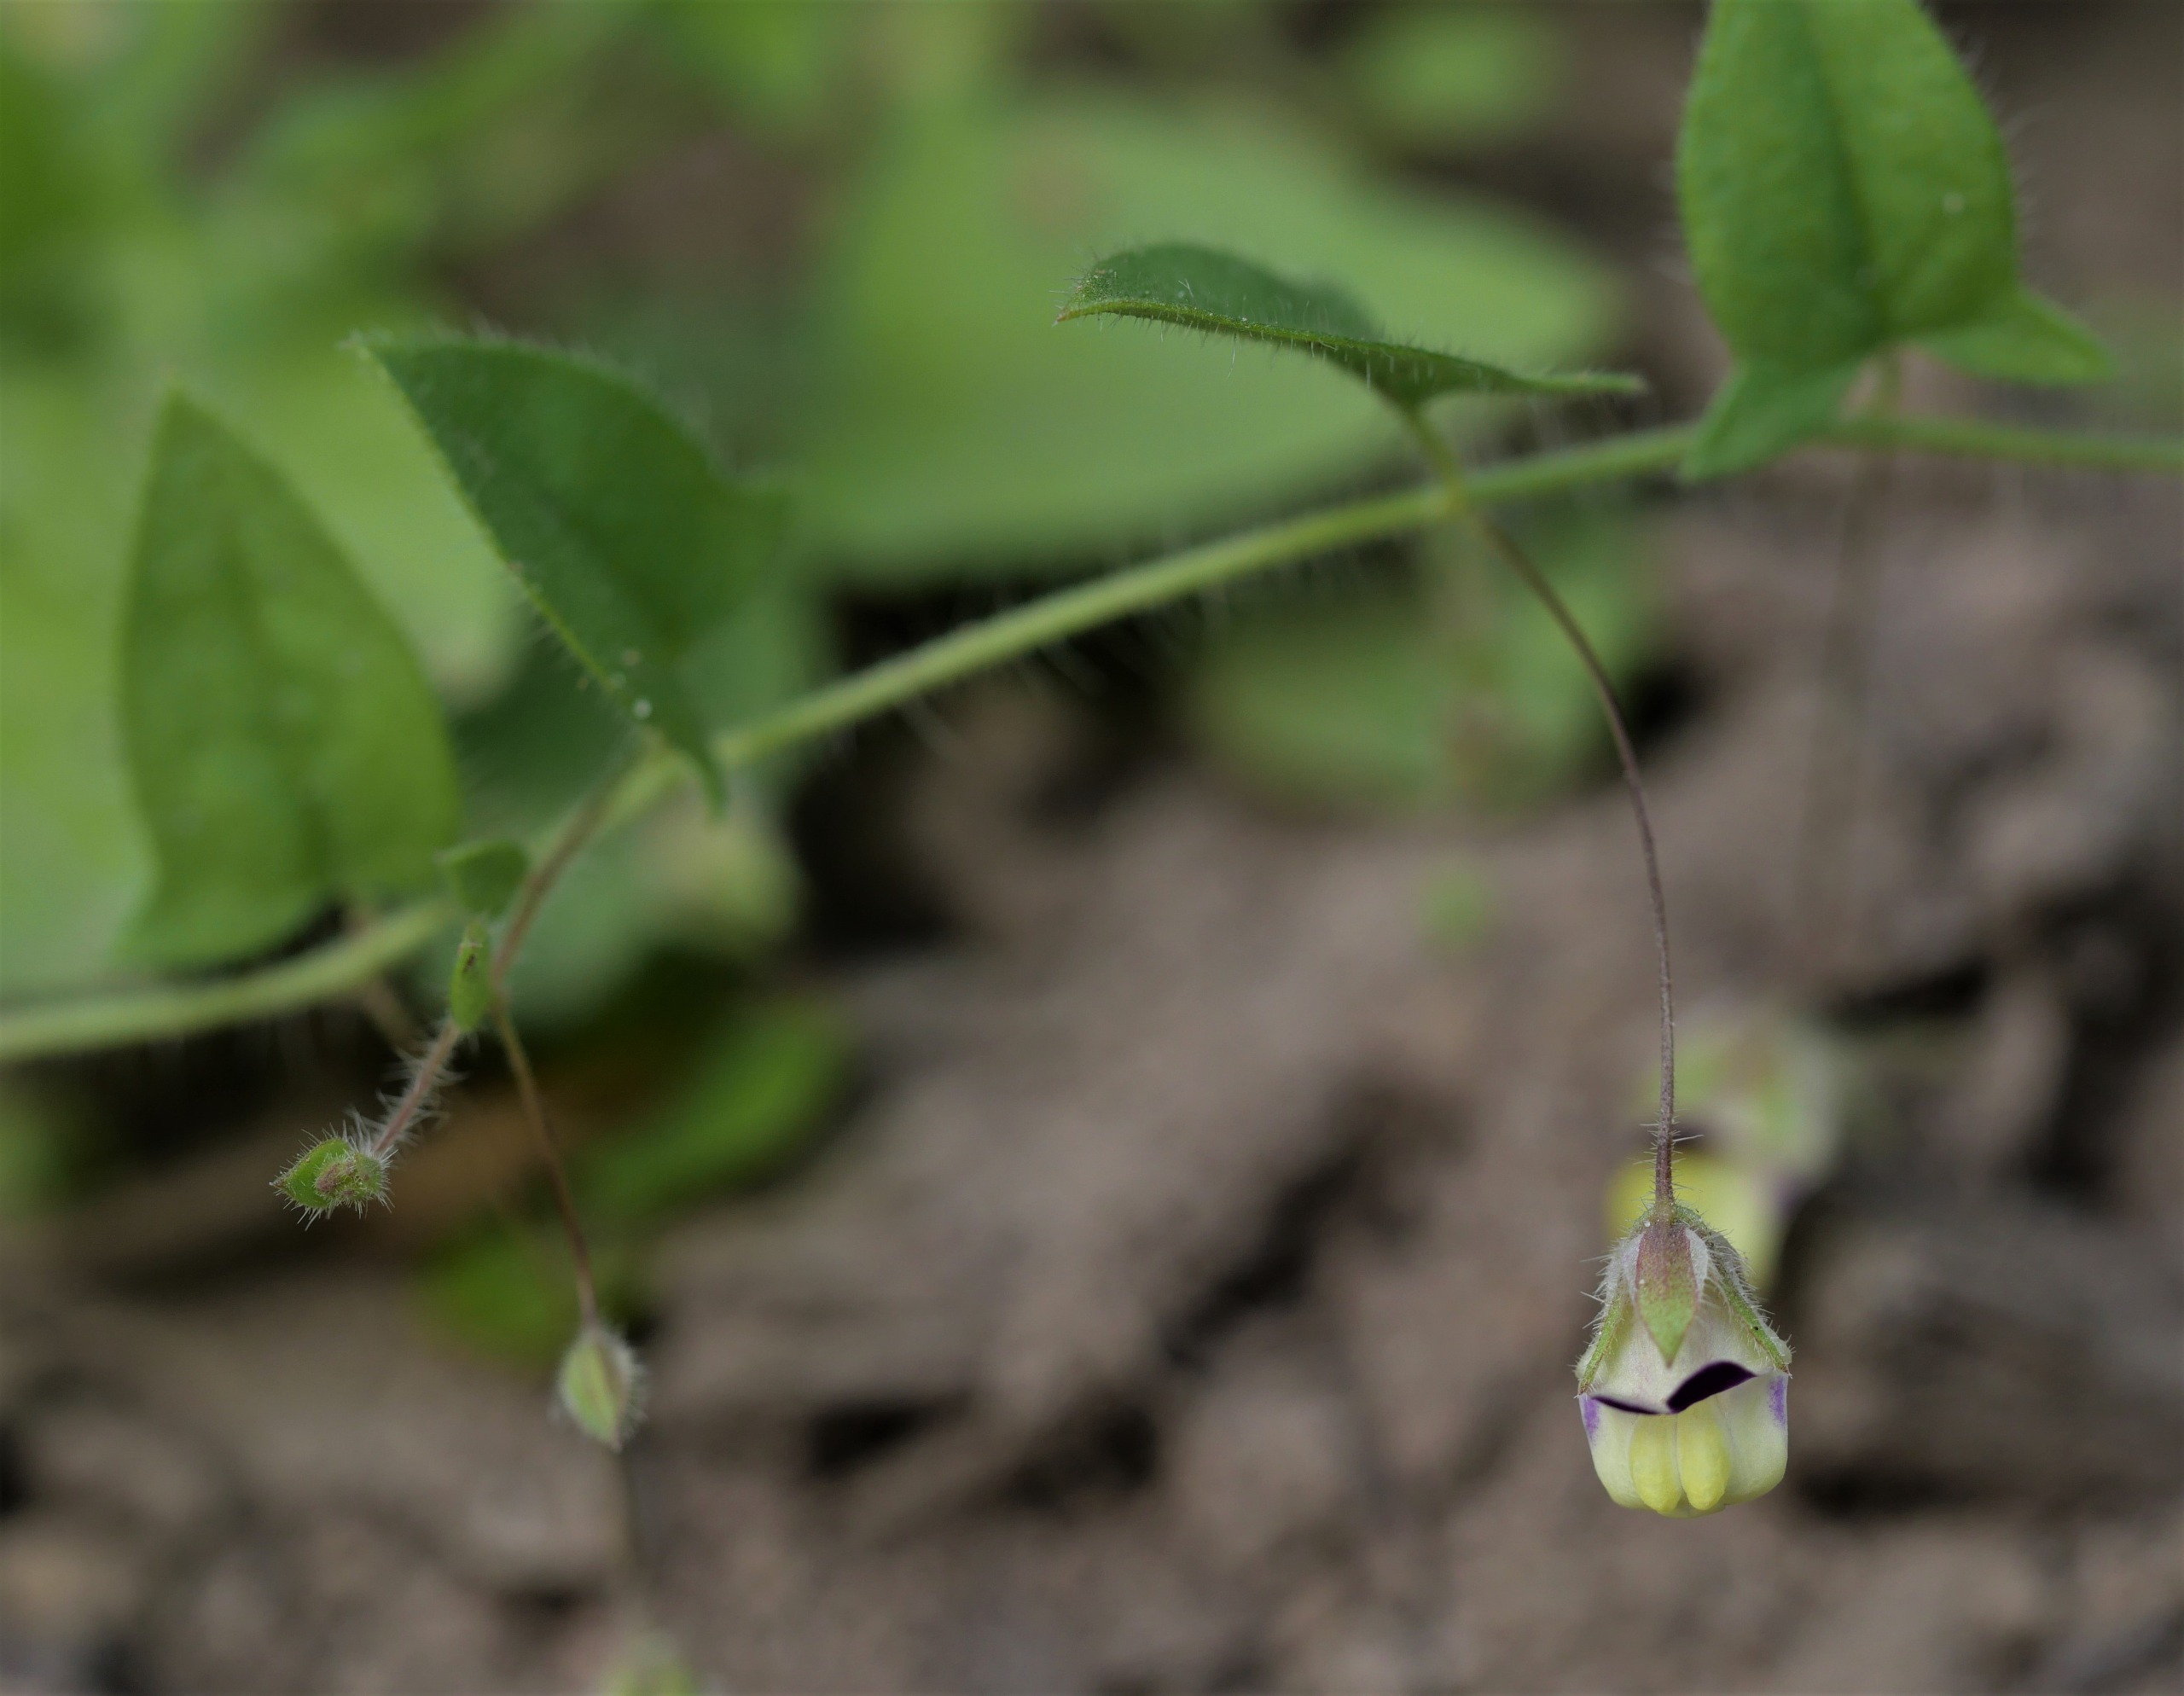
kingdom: Plantae
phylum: Tracheophyta
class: Magnoliopsida
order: Lamiales
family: Plantaginaceae
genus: Kickxia
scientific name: Kickxia elatine
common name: Spydbladet torskemund
